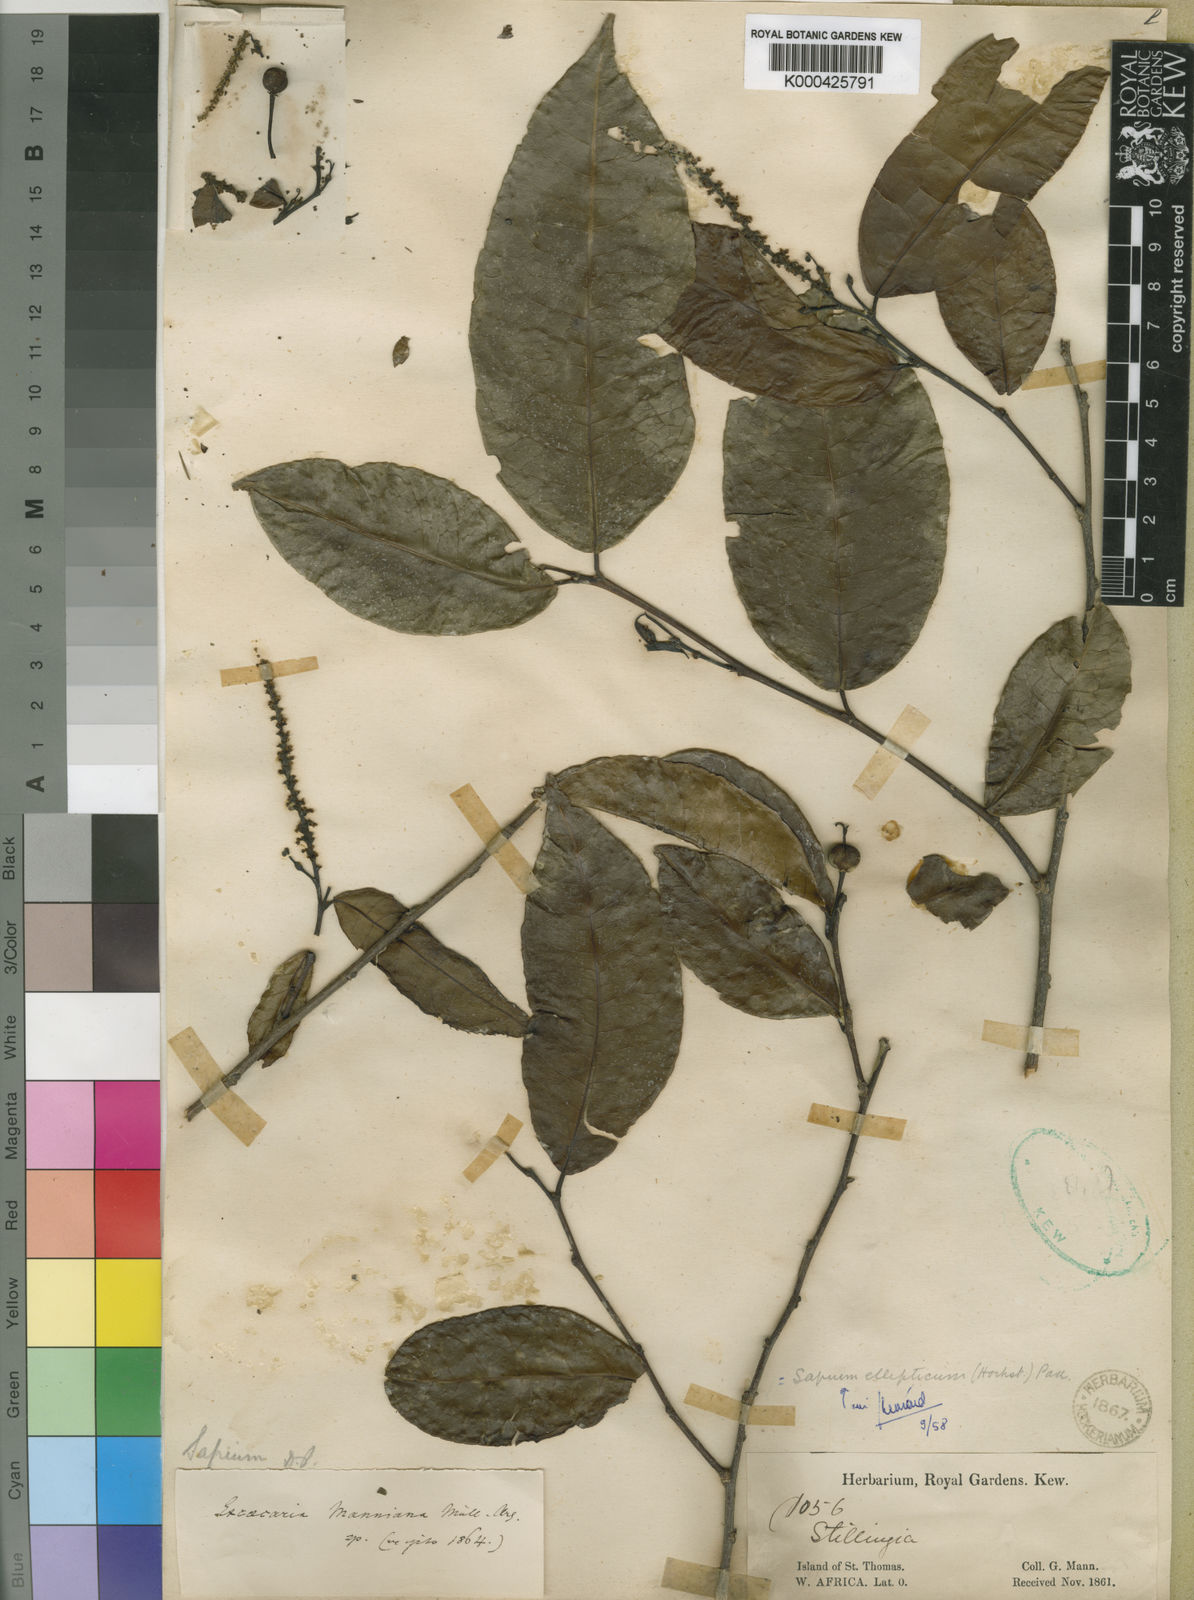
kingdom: Plantae
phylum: Tracheophyta
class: Magnoliopsida
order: Malpighiales
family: Euphorbiaceae
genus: Shirakiopsis
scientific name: Shirakiopsis elliptica
